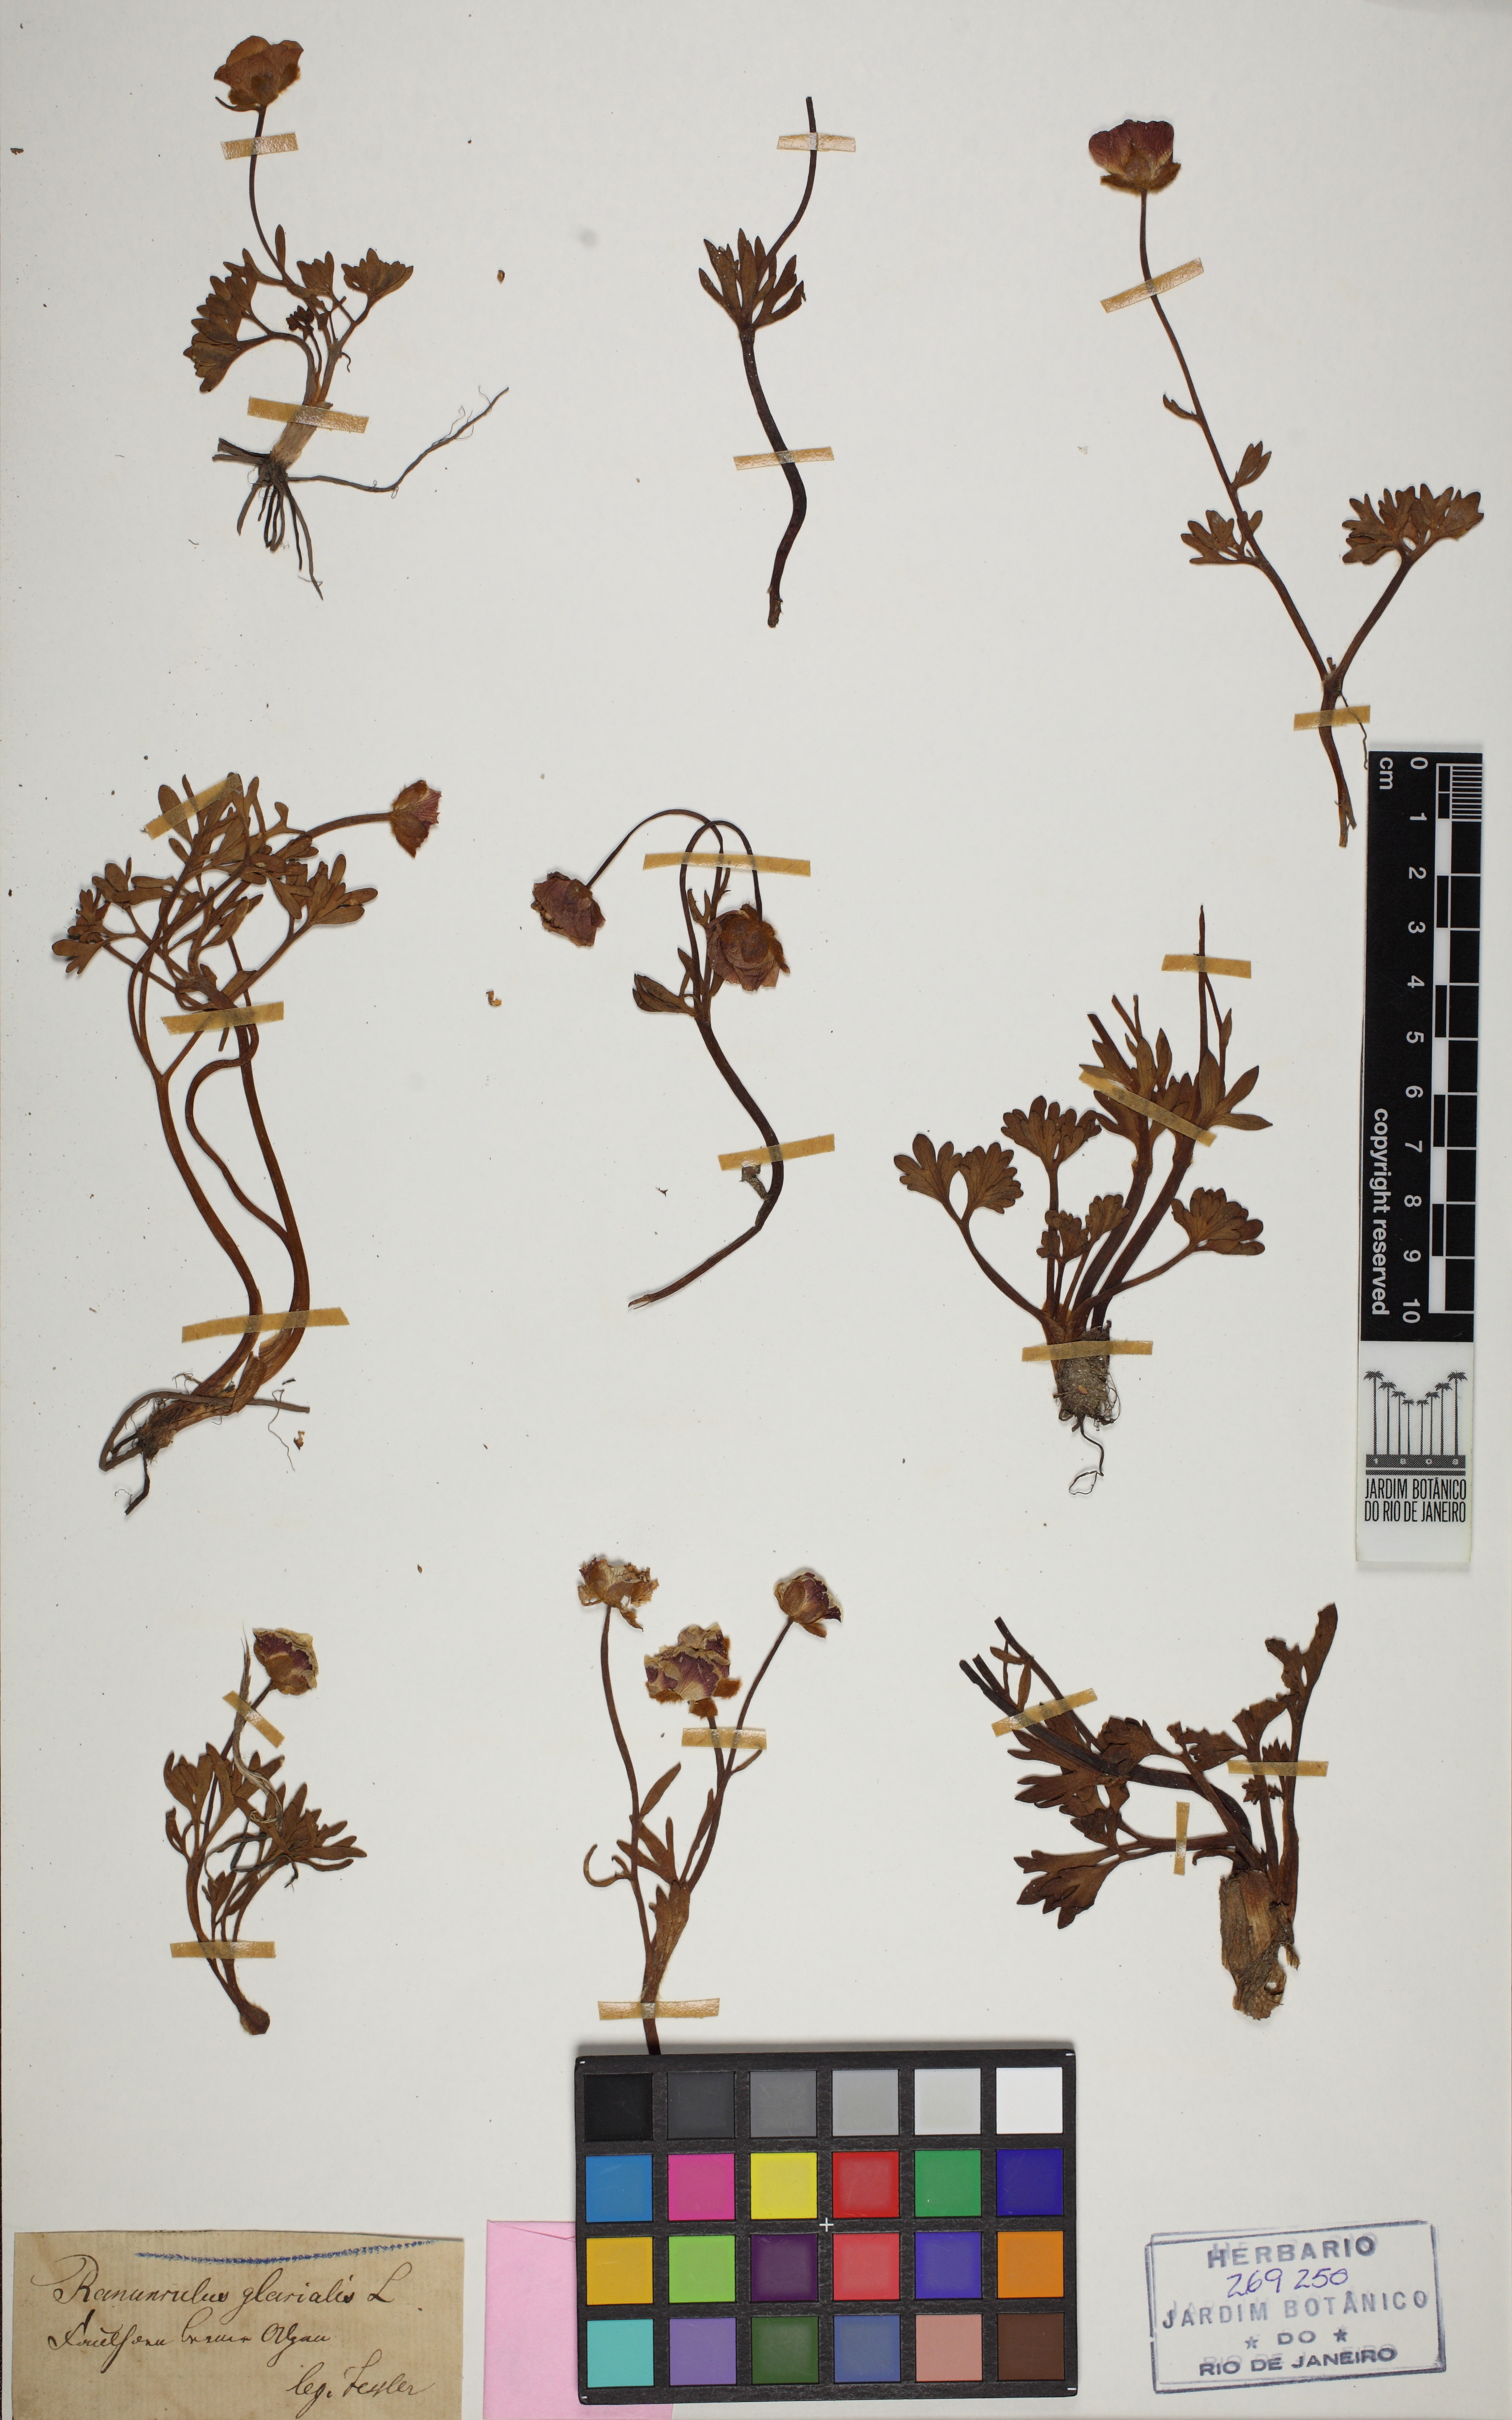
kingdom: Plantae
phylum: Tracheophyta
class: Magnoliopsida
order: Ranunculales
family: Ranunculaceae
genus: Ranunculus
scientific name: Ranunculus glacialis
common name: Glacier buttercup
